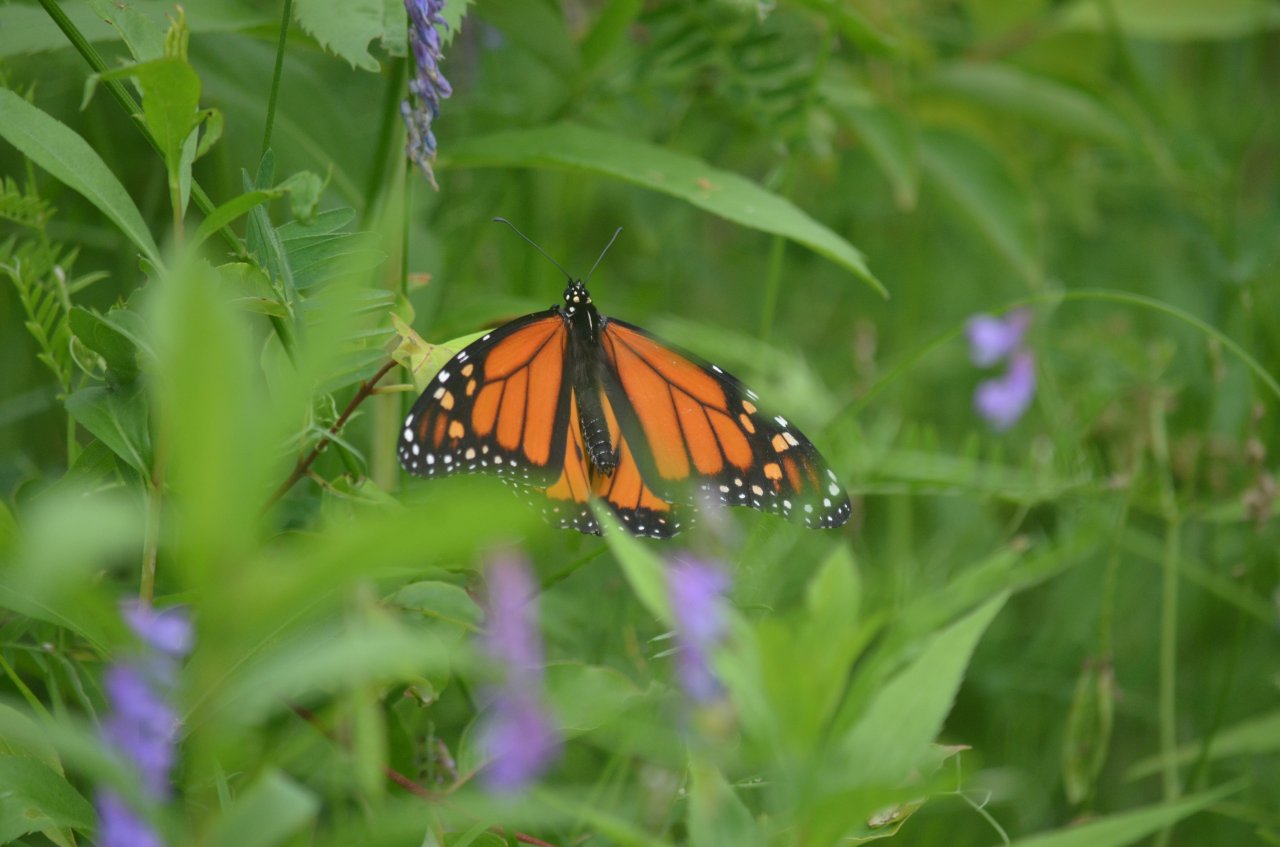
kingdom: Animalia
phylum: Arthropoda
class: Insecta
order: Lepidoptera
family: Nymphalidae
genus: Danaus
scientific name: Danaus plexippus
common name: Monarch
